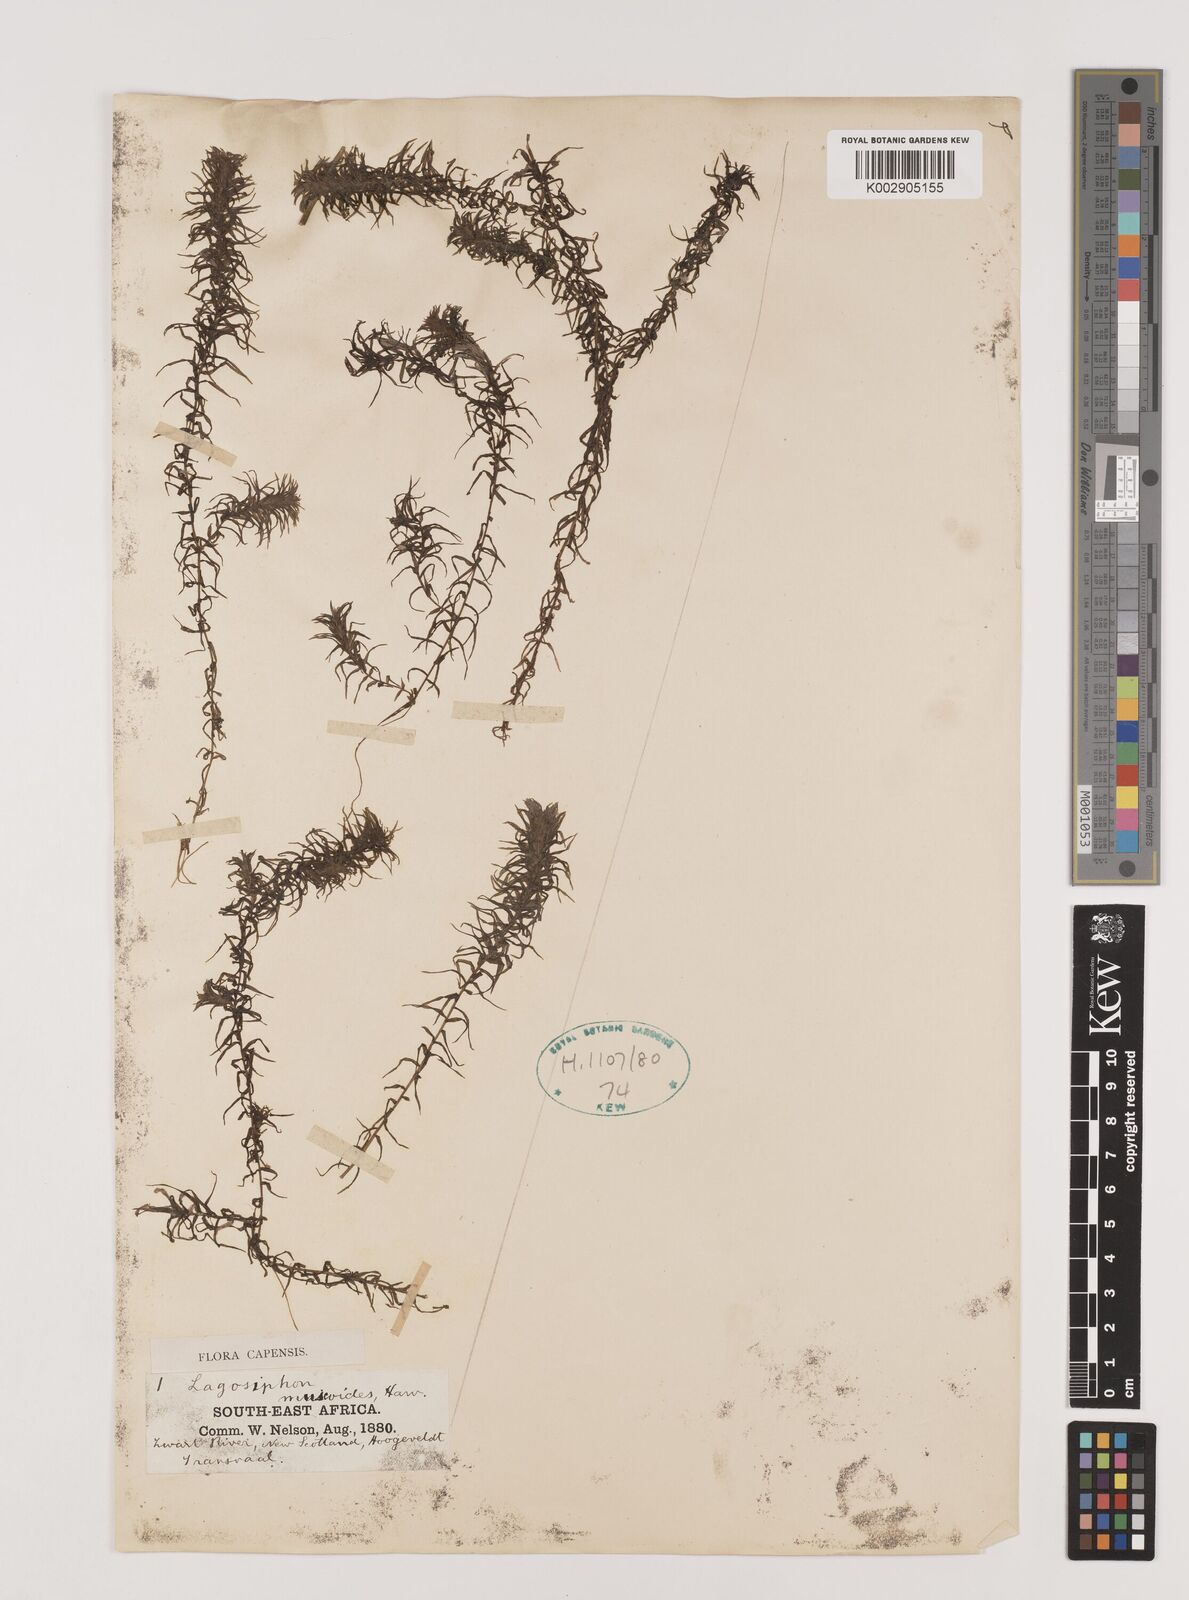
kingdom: Plantae
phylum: Tracheophyta
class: Liliopsida
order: Alismatales
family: Hydrocharitaceae
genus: Lagarosiphon
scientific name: Lagarosiphon muscoides
